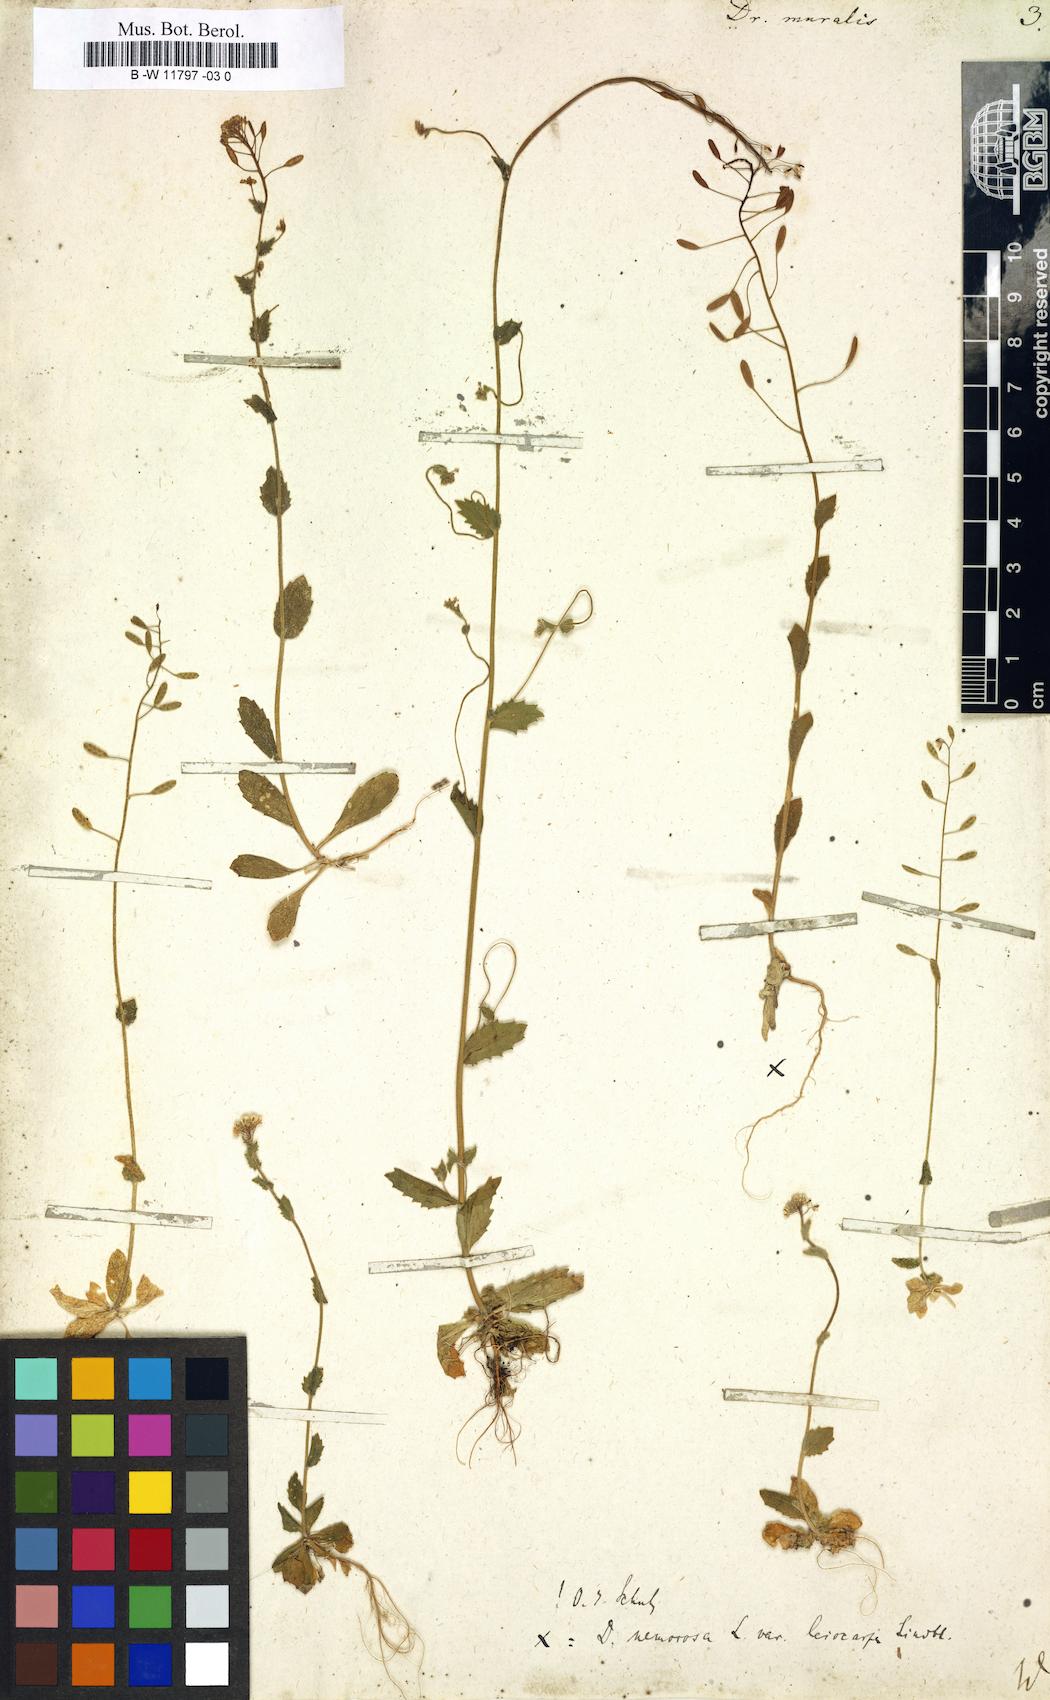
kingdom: Plantae
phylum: Tracheophyta
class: Magnoliopsida
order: Brassicales
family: Brassicaceae
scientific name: Brassicaceae
